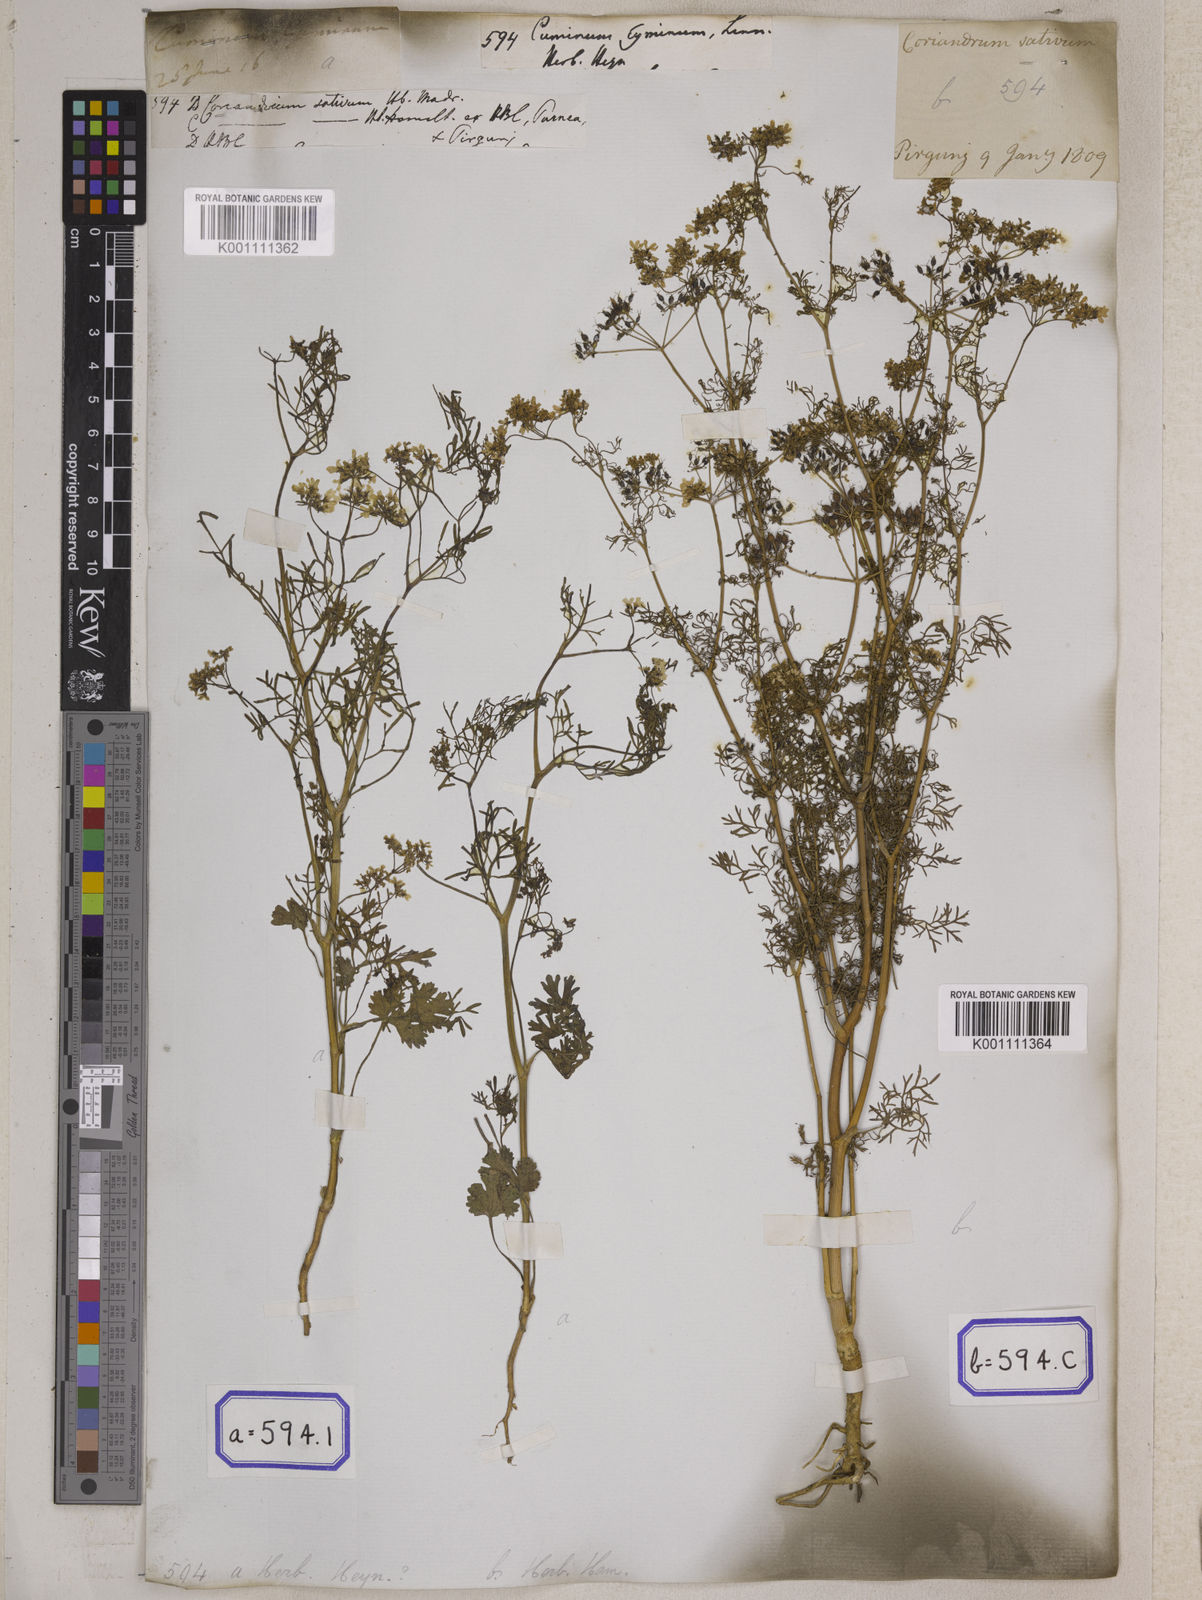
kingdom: Plantae
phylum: Tracheophyta
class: Magnoliopsida
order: Apiales
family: Apiaceae
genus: Cuminum
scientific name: Cuminum cyminum
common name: Cumin
